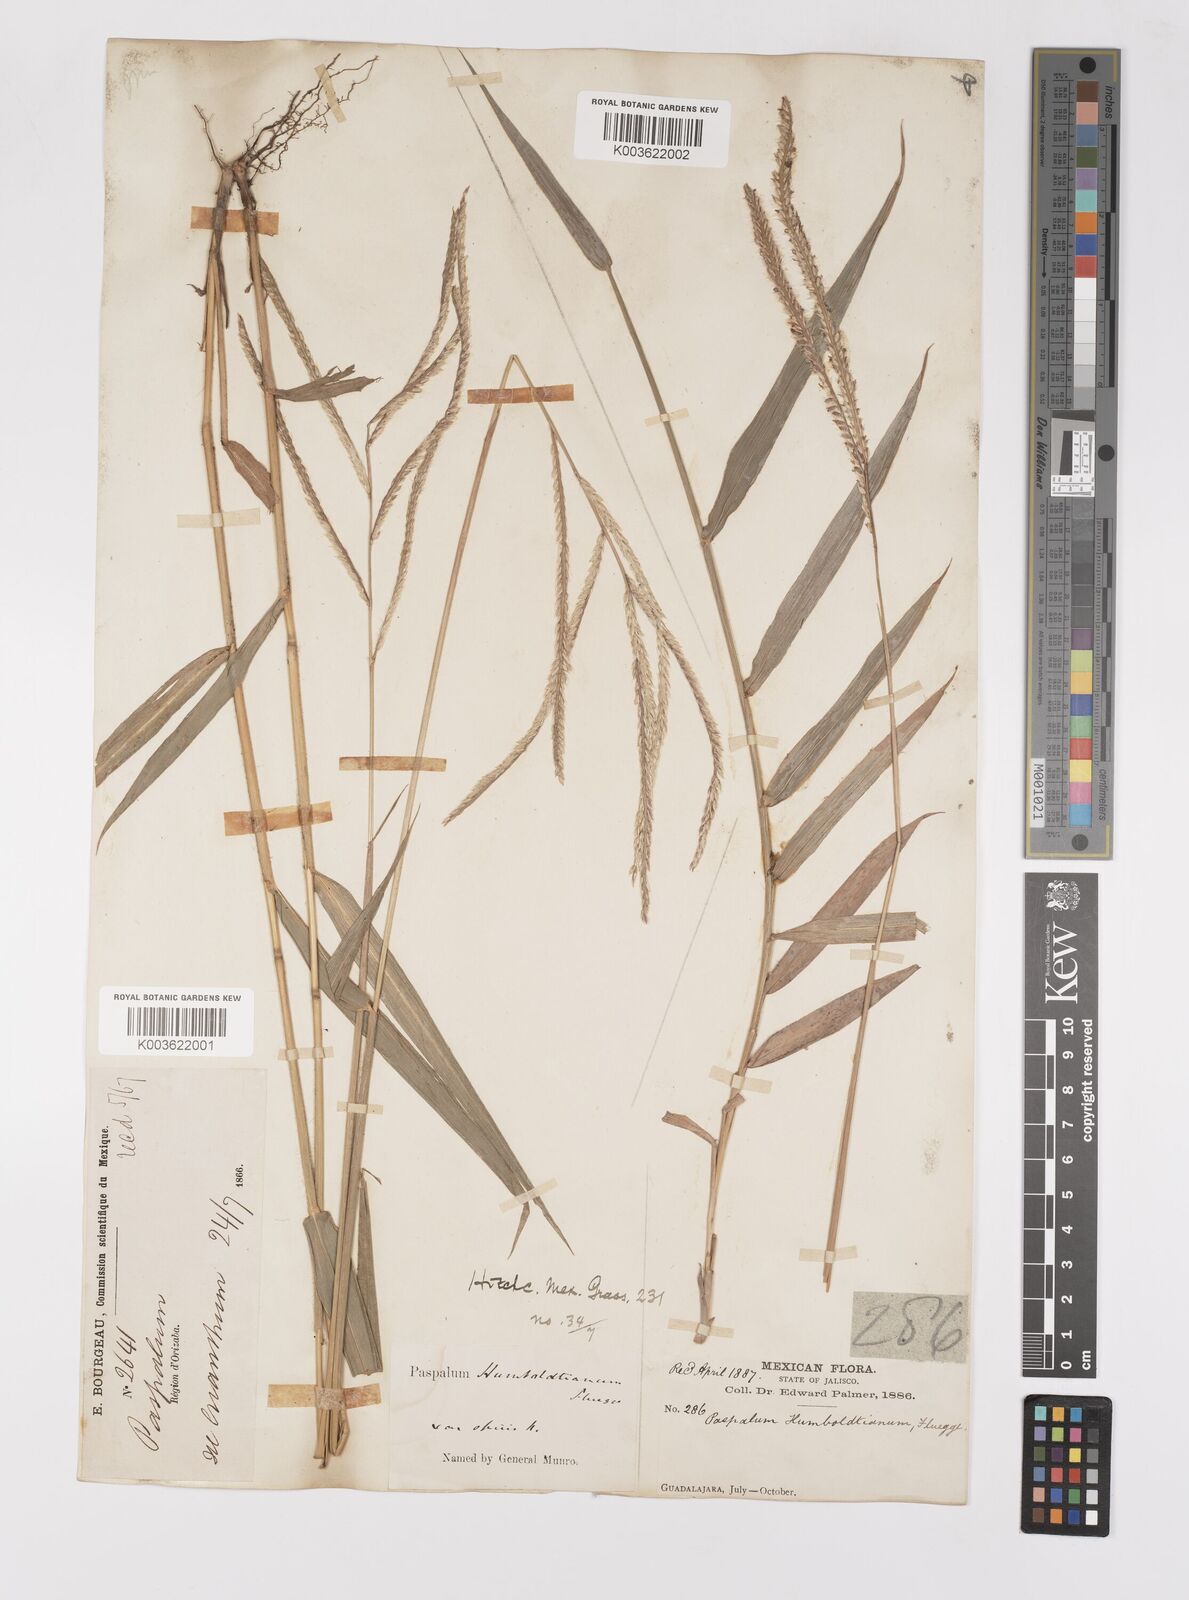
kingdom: Plantae
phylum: Tracheophyta
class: Liliopsida
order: Poales
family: Poaceae
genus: Paspalum
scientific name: Paspalum humboldtianum
